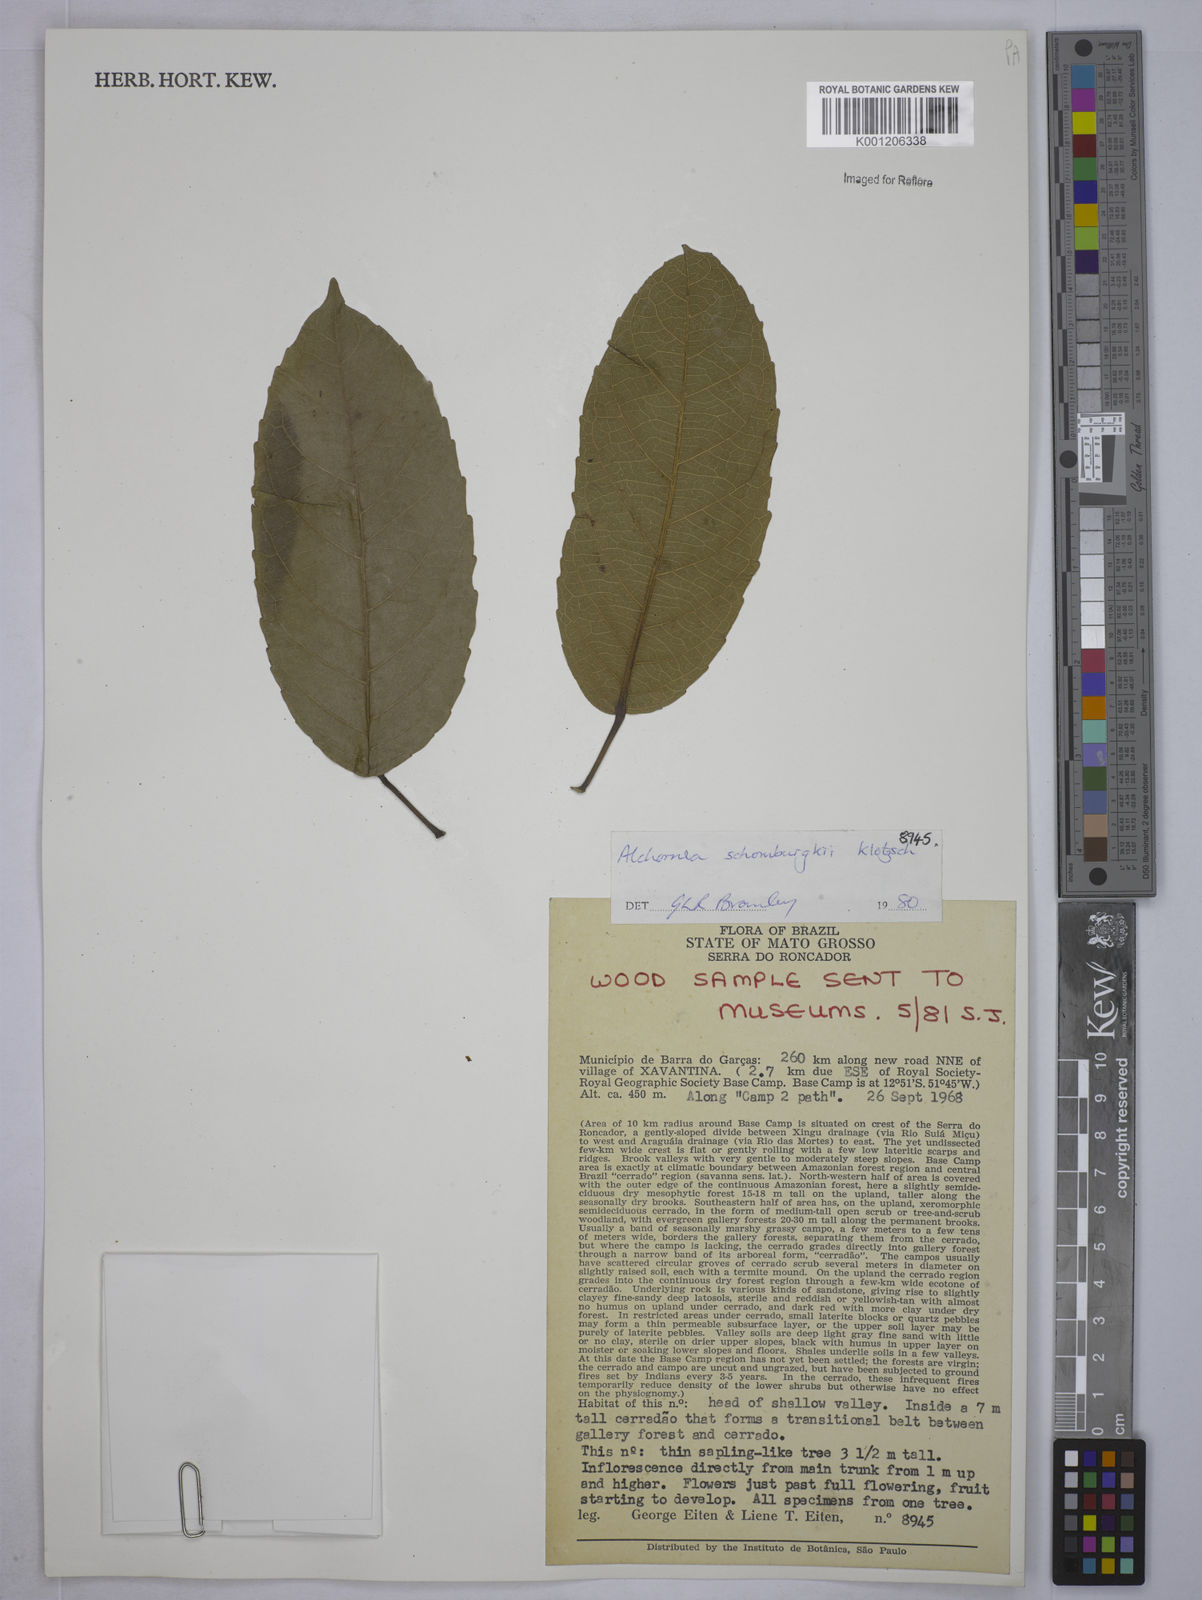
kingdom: Plantae
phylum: Tracheophyta
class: Magnoliopsida
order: Malpighiales
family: Euphorbiaceae
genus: Alchornea
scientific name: Alchornea discolor
